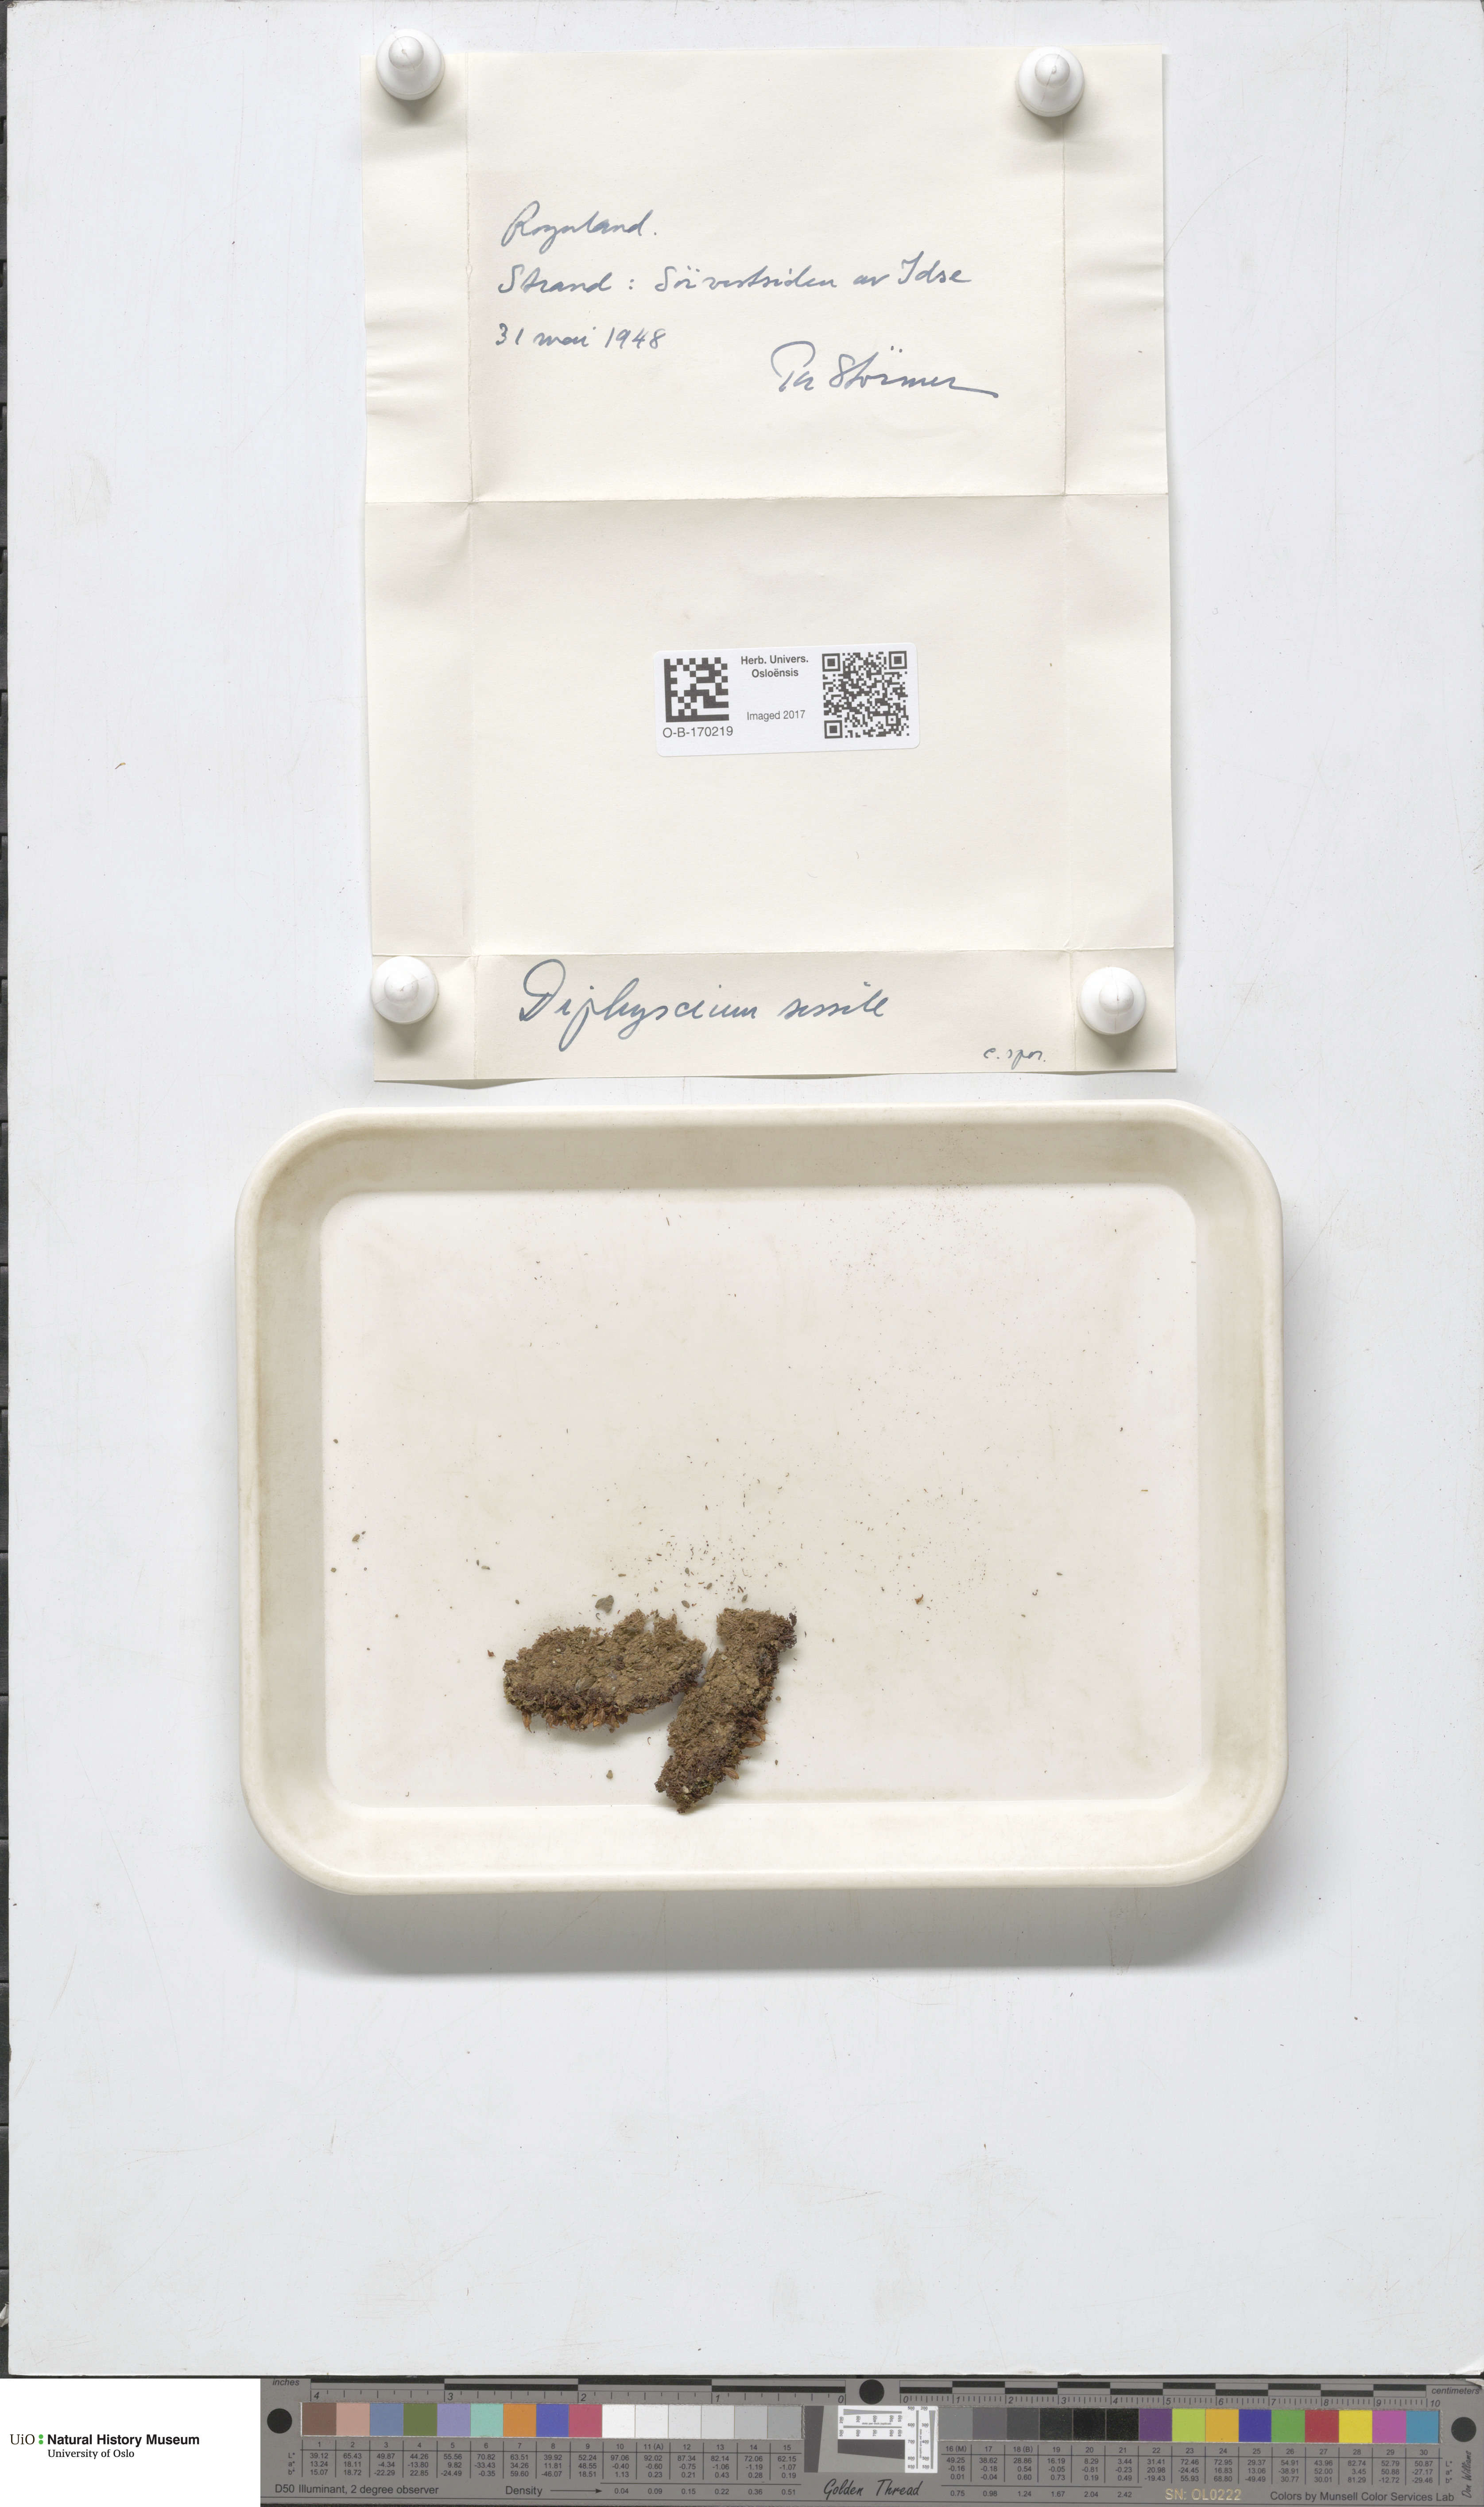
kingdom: Plantae
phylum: Bryophyta
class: Bryopsida
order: Diphysciales
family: Diphysciaceae
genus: Diphyscium
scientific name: Diphyscium foliosum
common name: Nut moss
